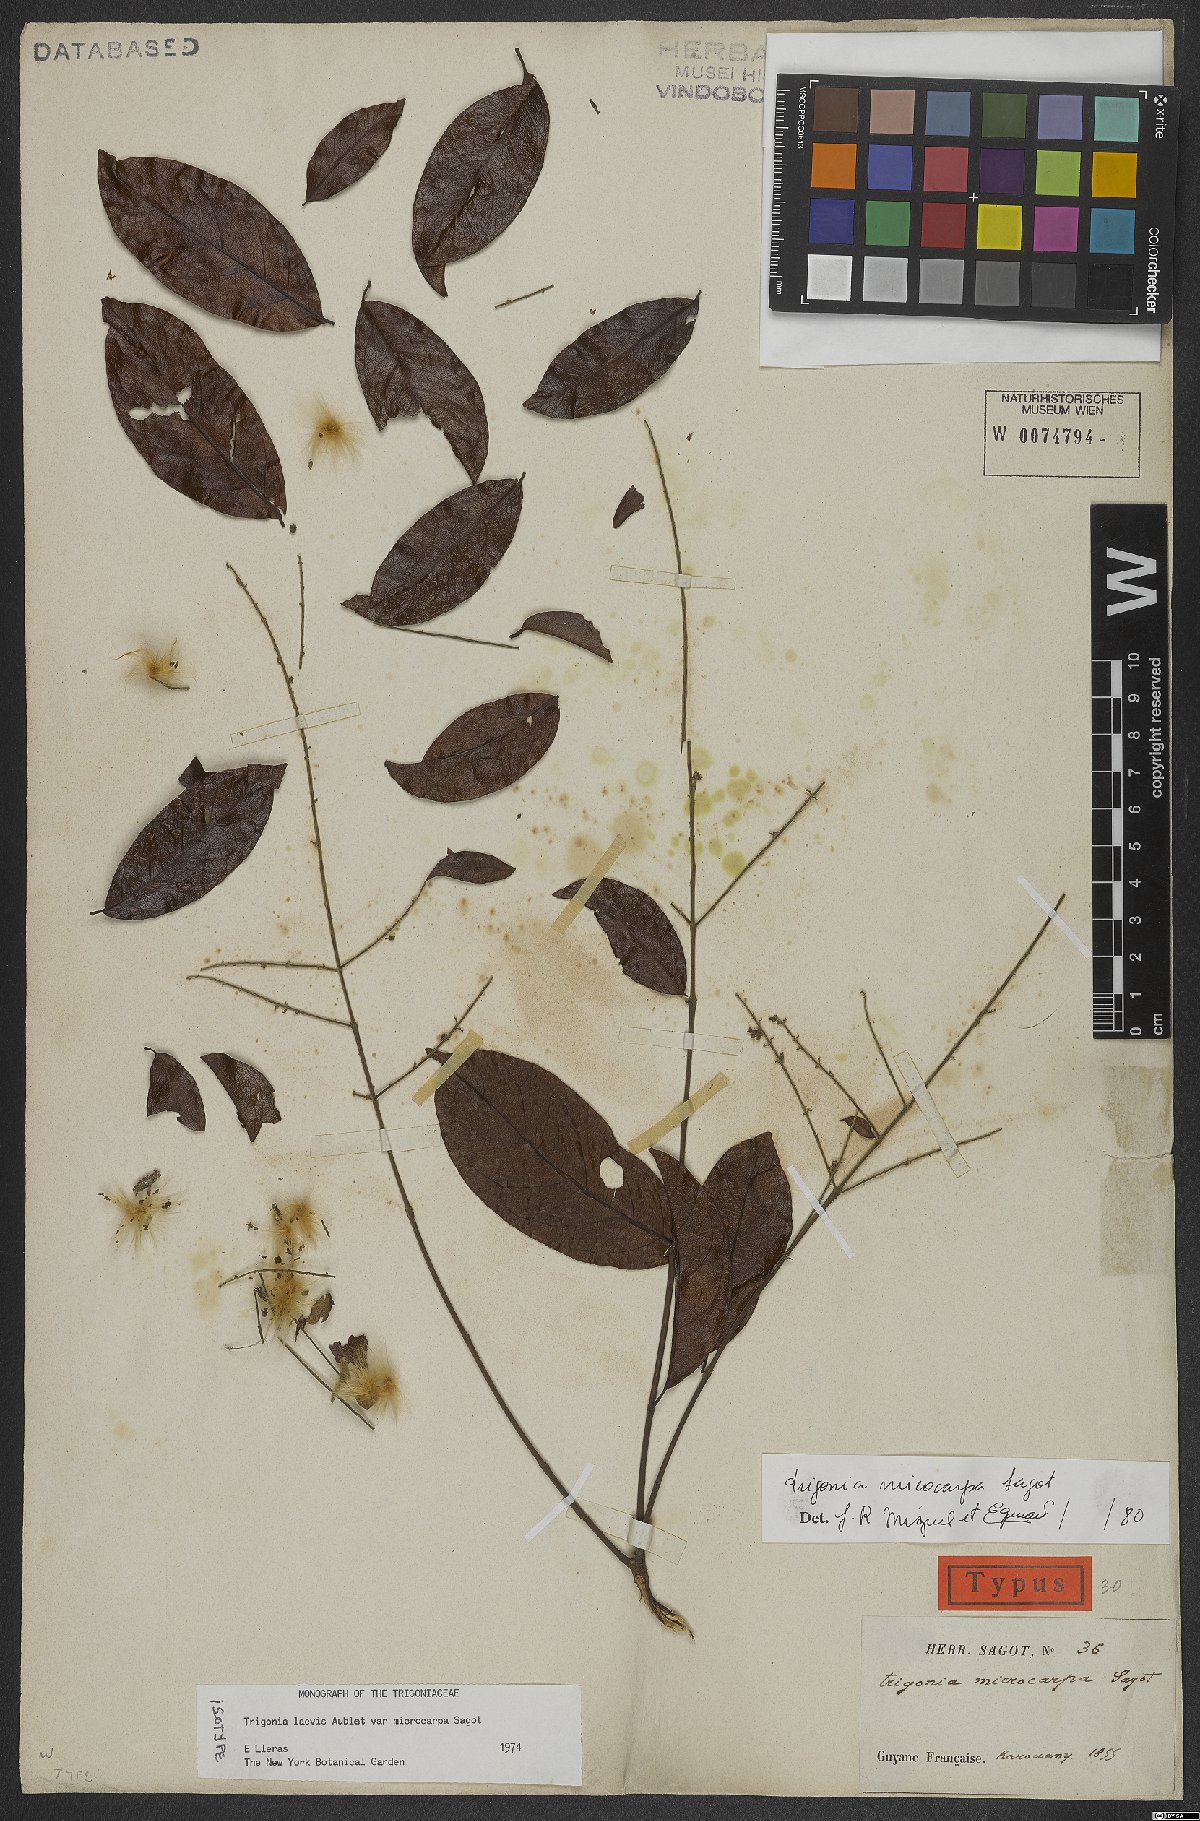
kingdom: Plantae
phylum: Tracheophyta
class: Magnoliopsida
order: Malpighiales
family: Trigoniaceae
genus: Trigonia
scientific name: Trigonia microcarpa
